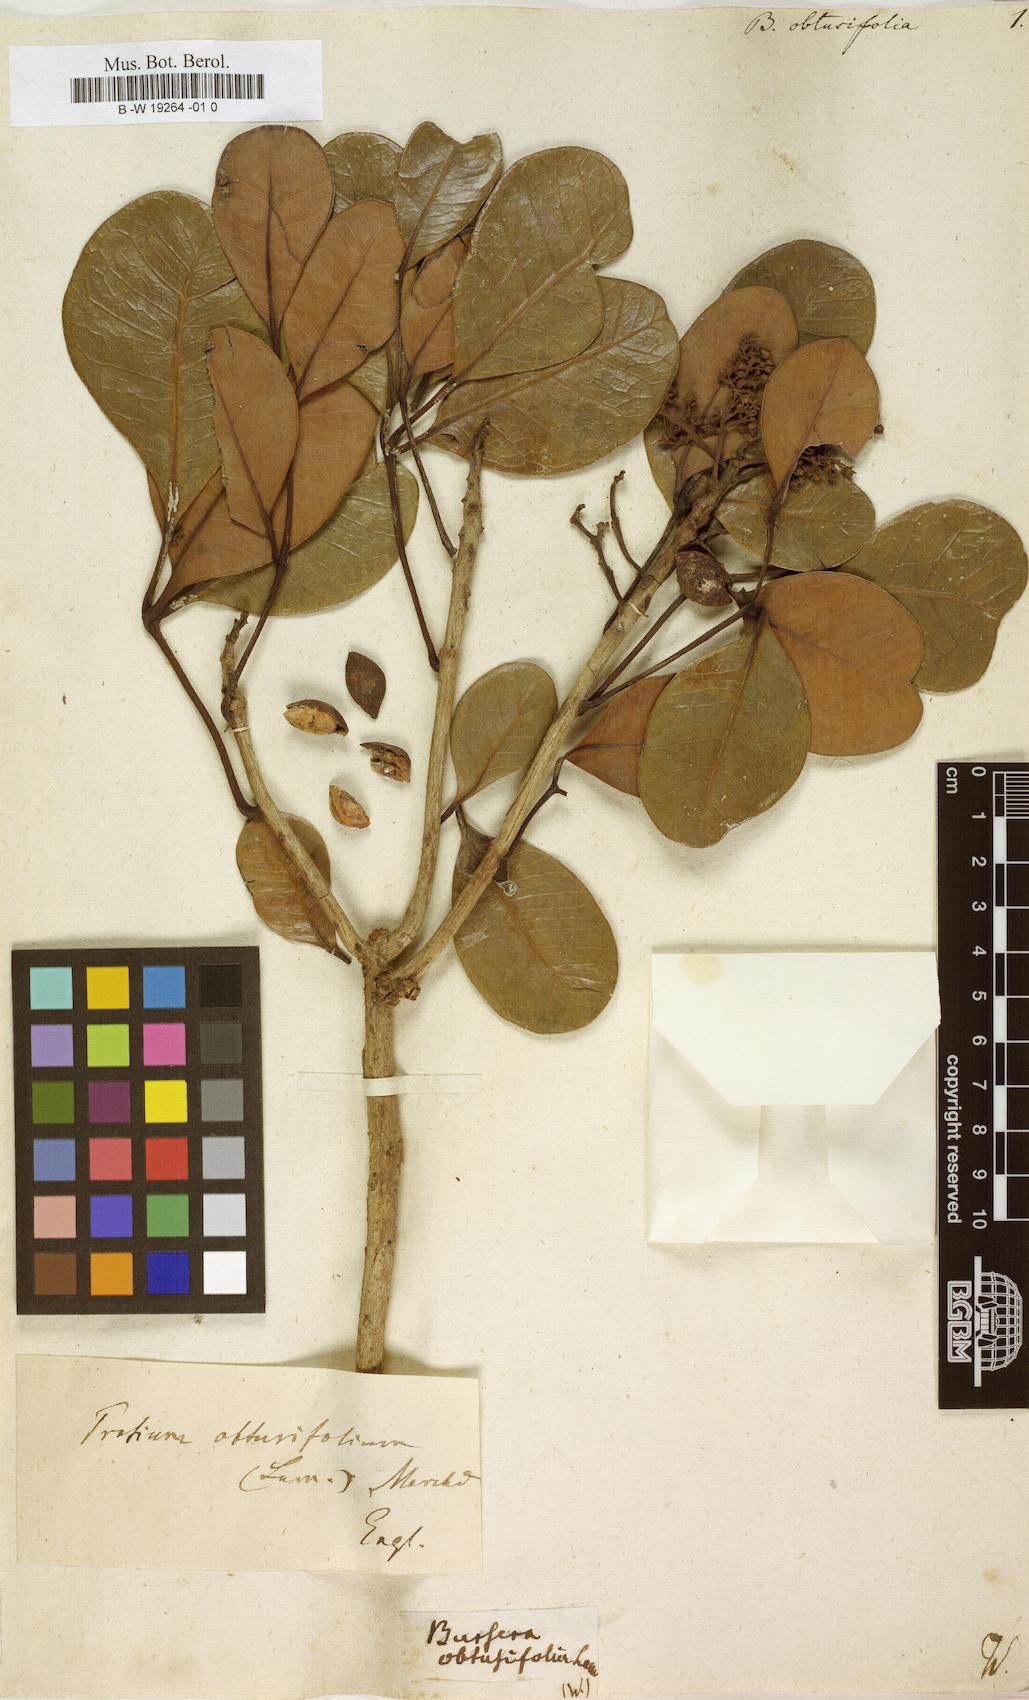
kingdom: Plantae
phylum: Tracheophyta
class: Magnoliopsida
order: Sapindales
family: Burseraceae
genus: Protium
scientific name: Protium obtusifolium
